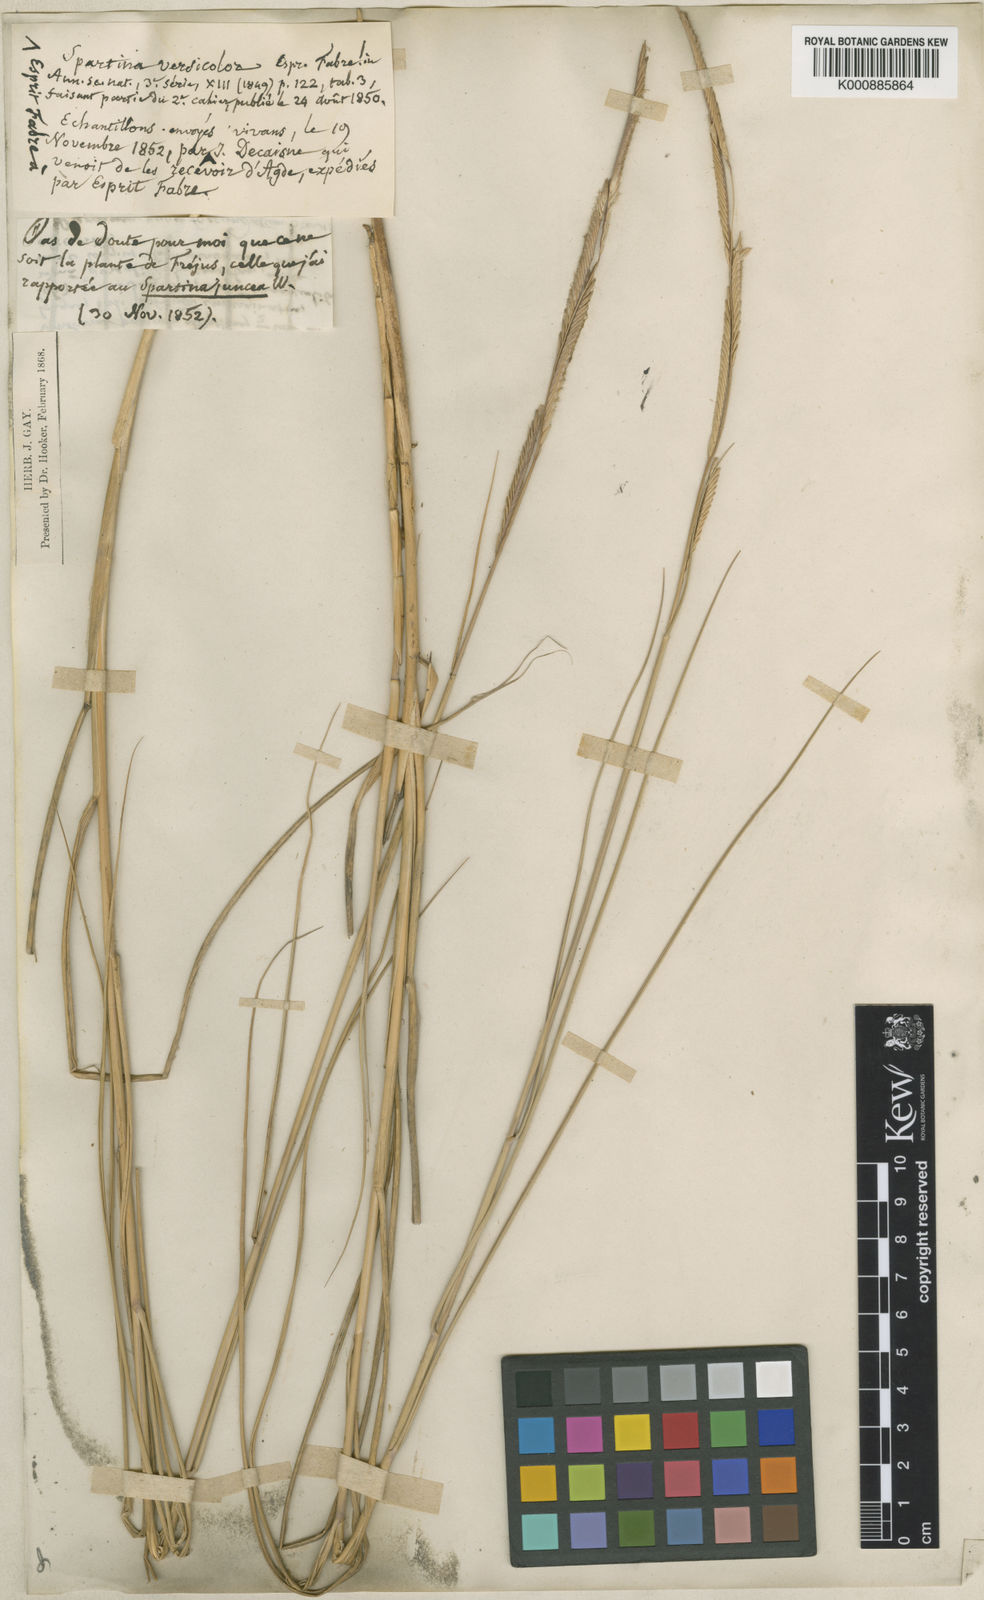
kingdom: Plantae
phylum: Tracheophyta
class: Liliopsida
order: Poales
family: Poaceae
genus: Sporobolus
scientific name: Sporobolus versicolor
